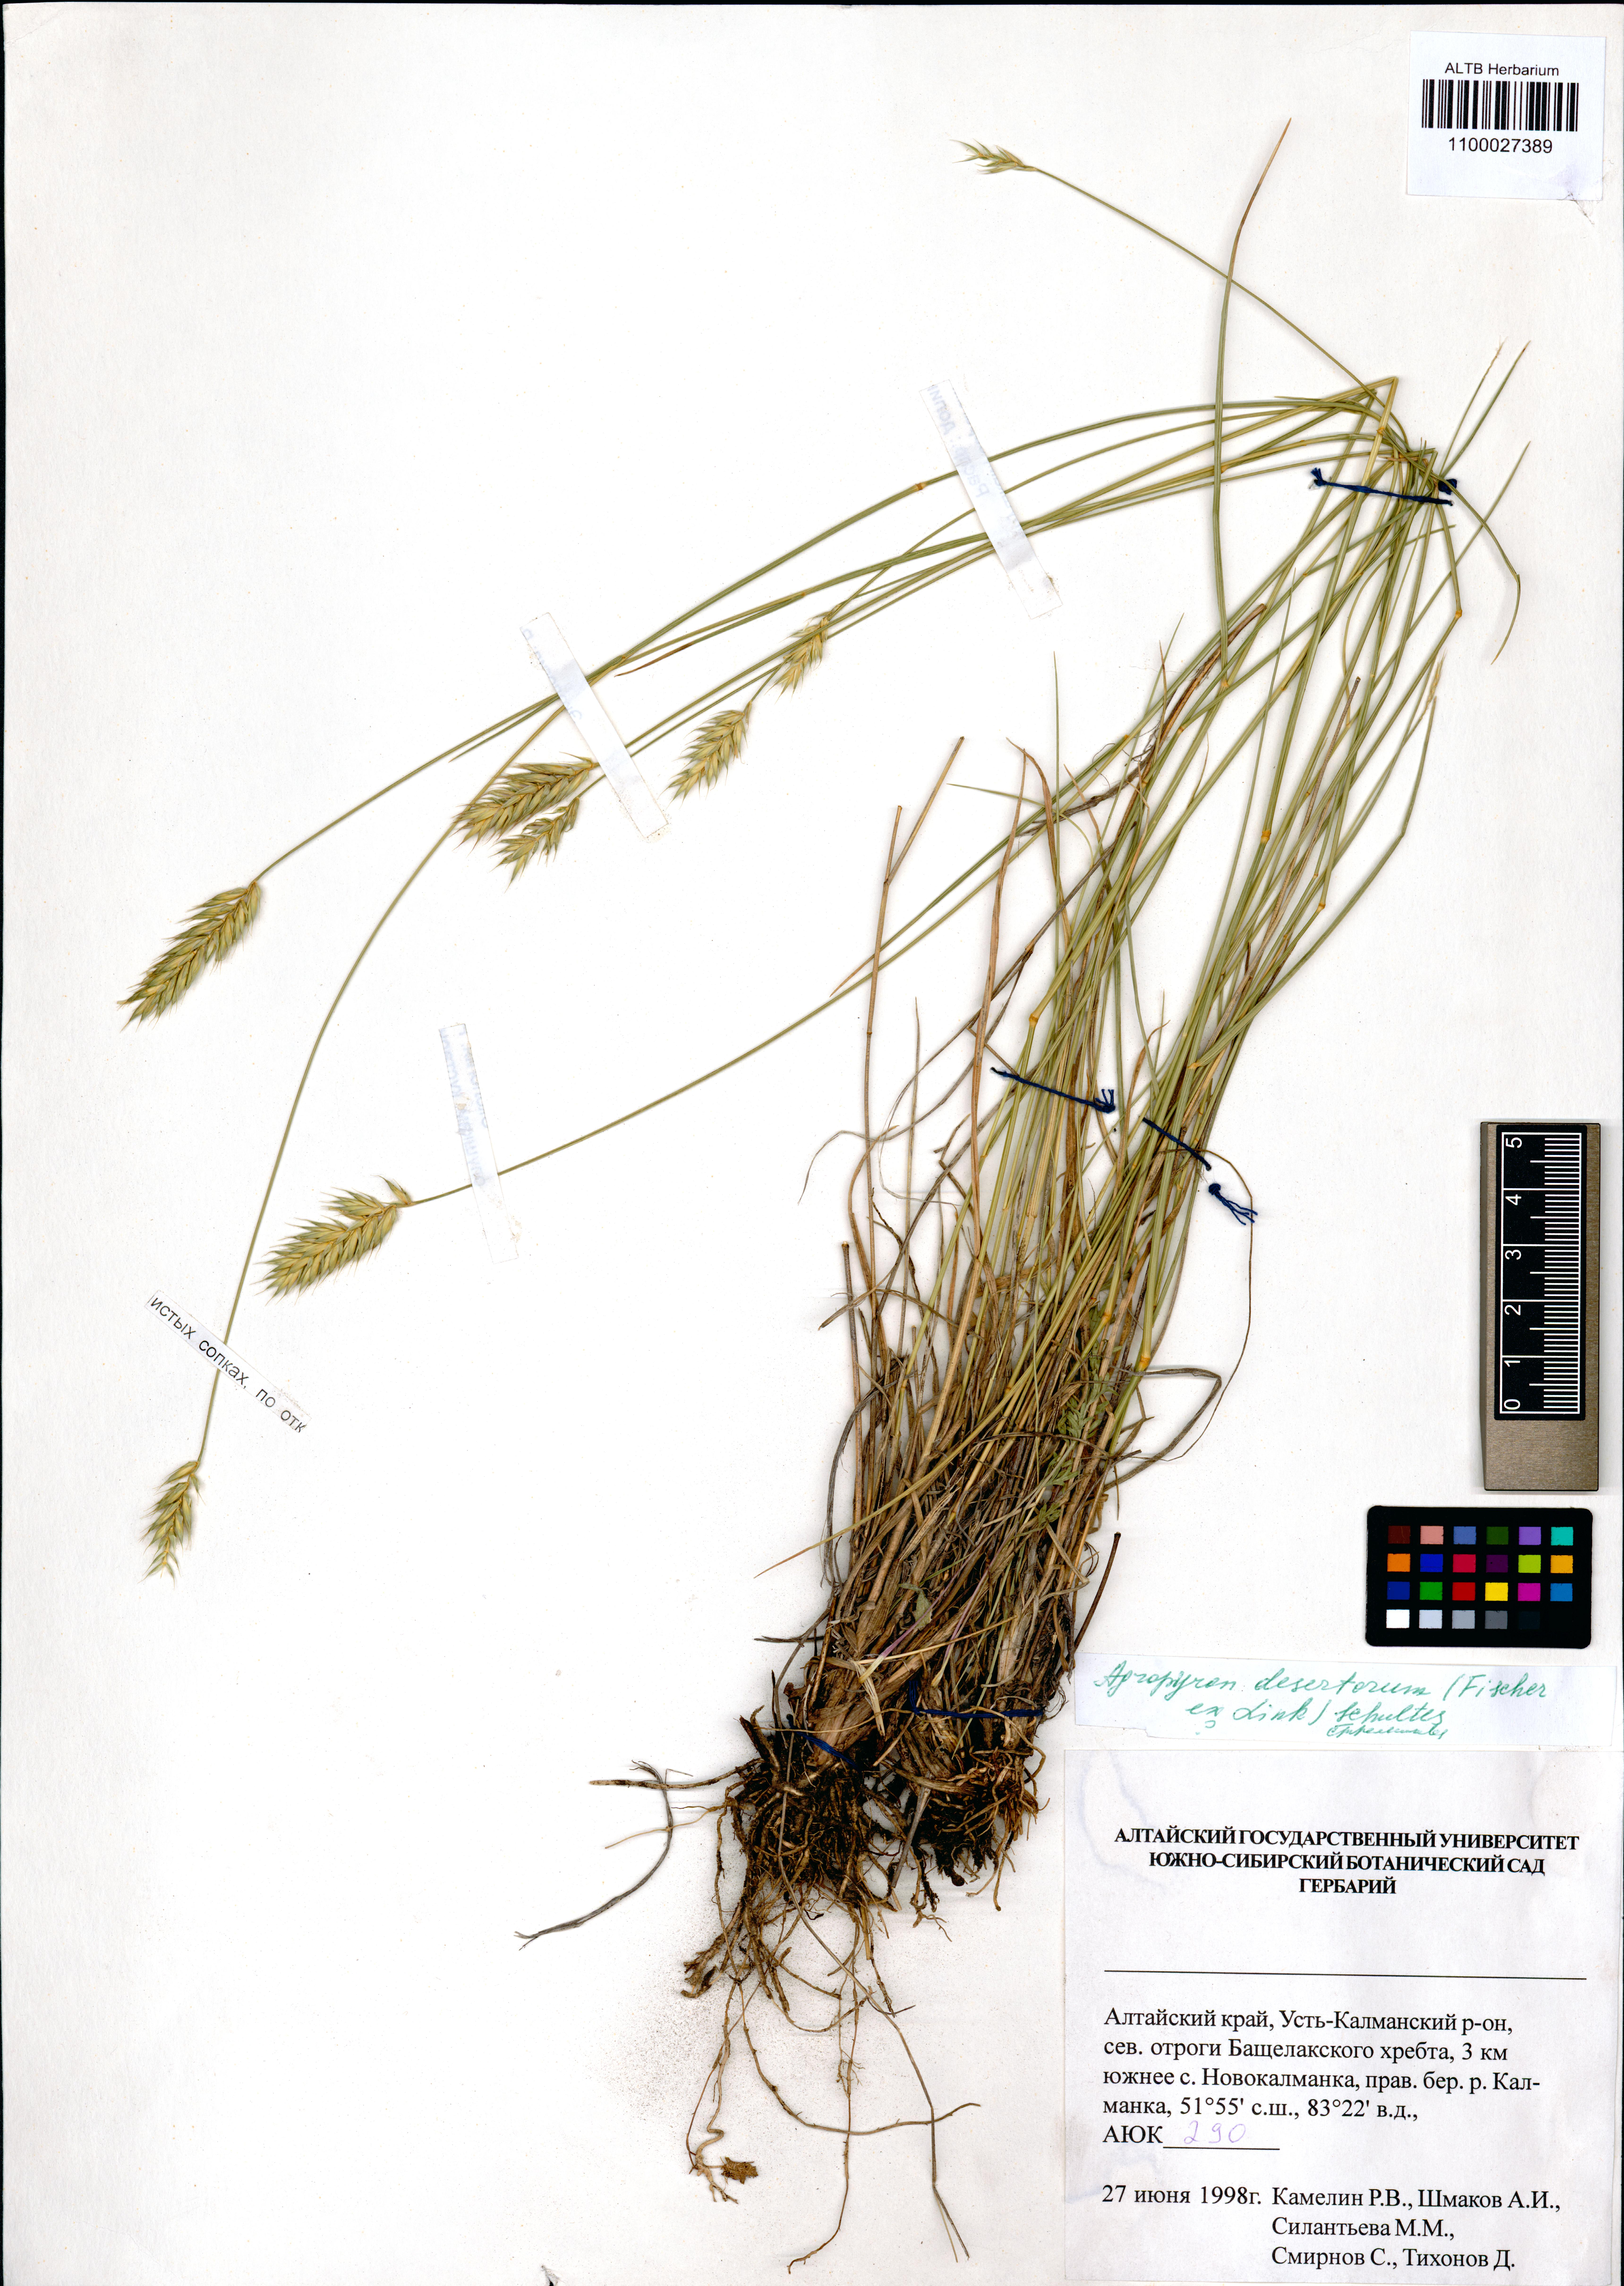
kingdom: Plantae
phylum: Tracheophyta
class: Liliopsida
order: Poales
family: Poaceae
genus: Agropyron
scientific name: Agropyron desertorum
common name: Desert wheatgrass
